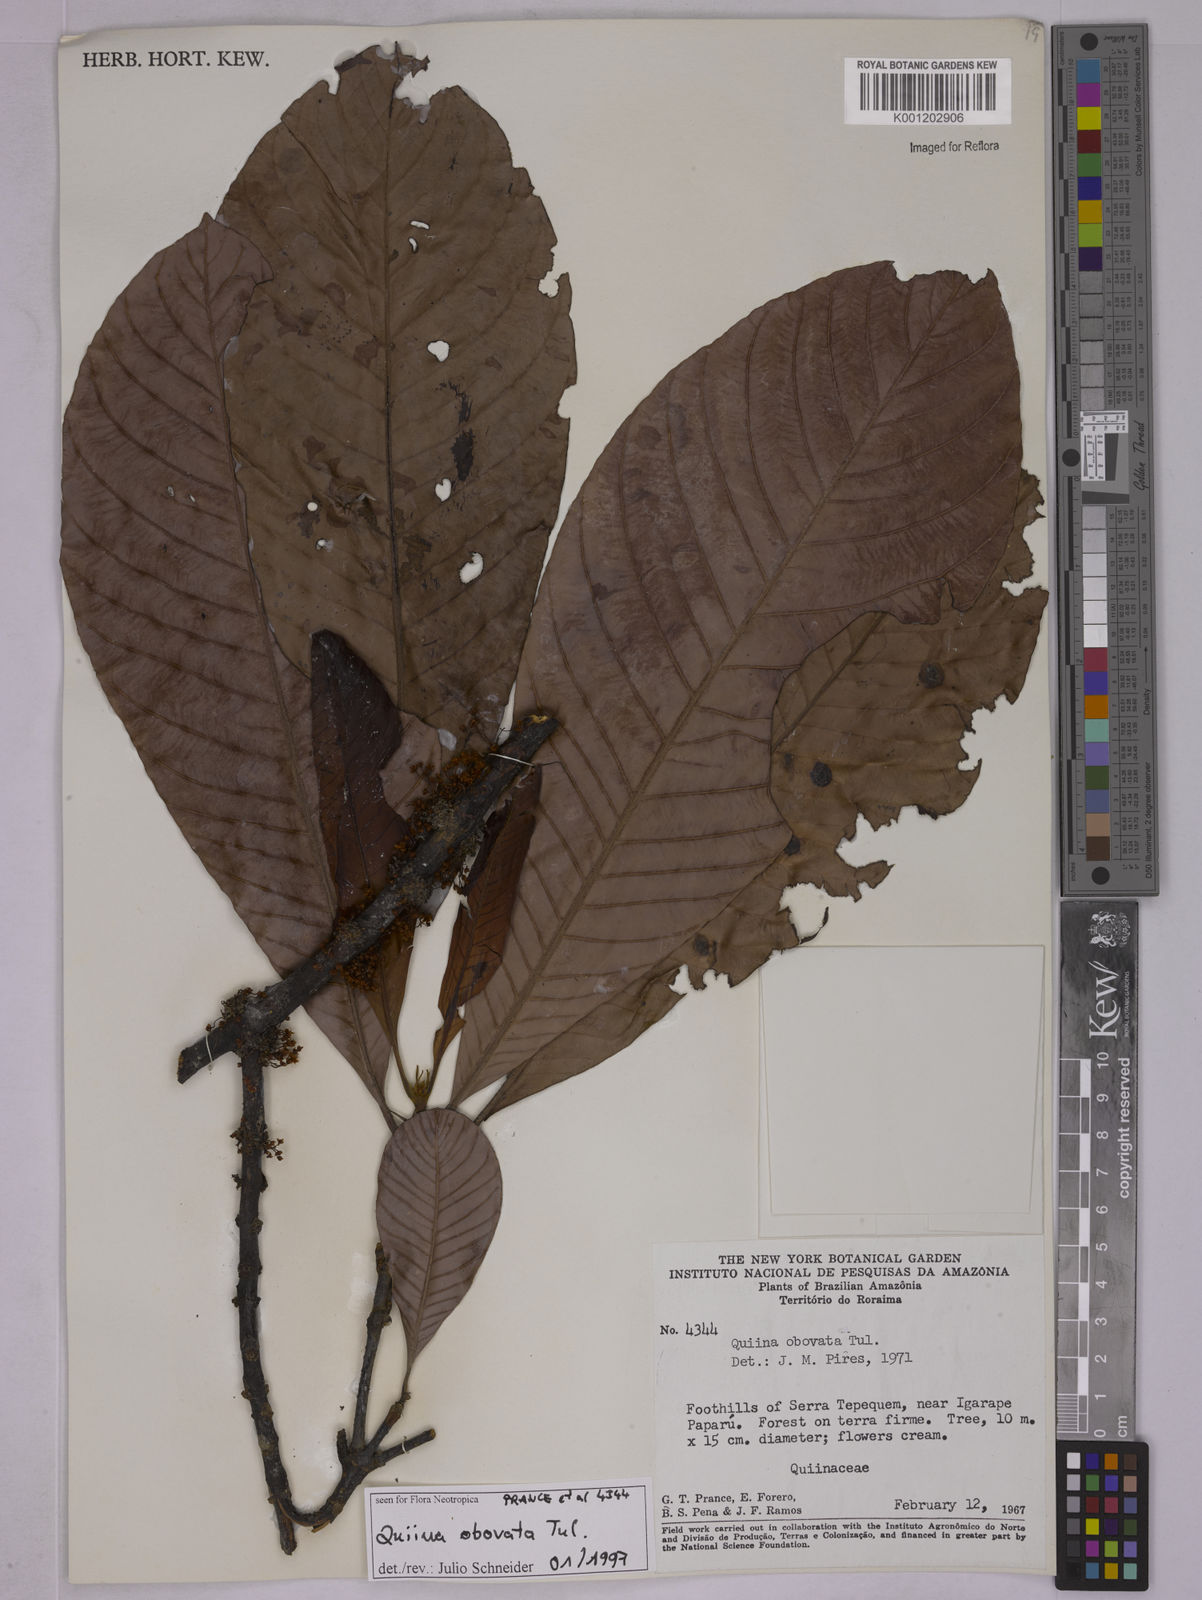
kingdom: Plantae
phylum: Tracheophyta
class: Magnoliopsida
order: Malpighiales
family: Quiinaceae
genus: Quiina
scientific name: Quiina obovata
